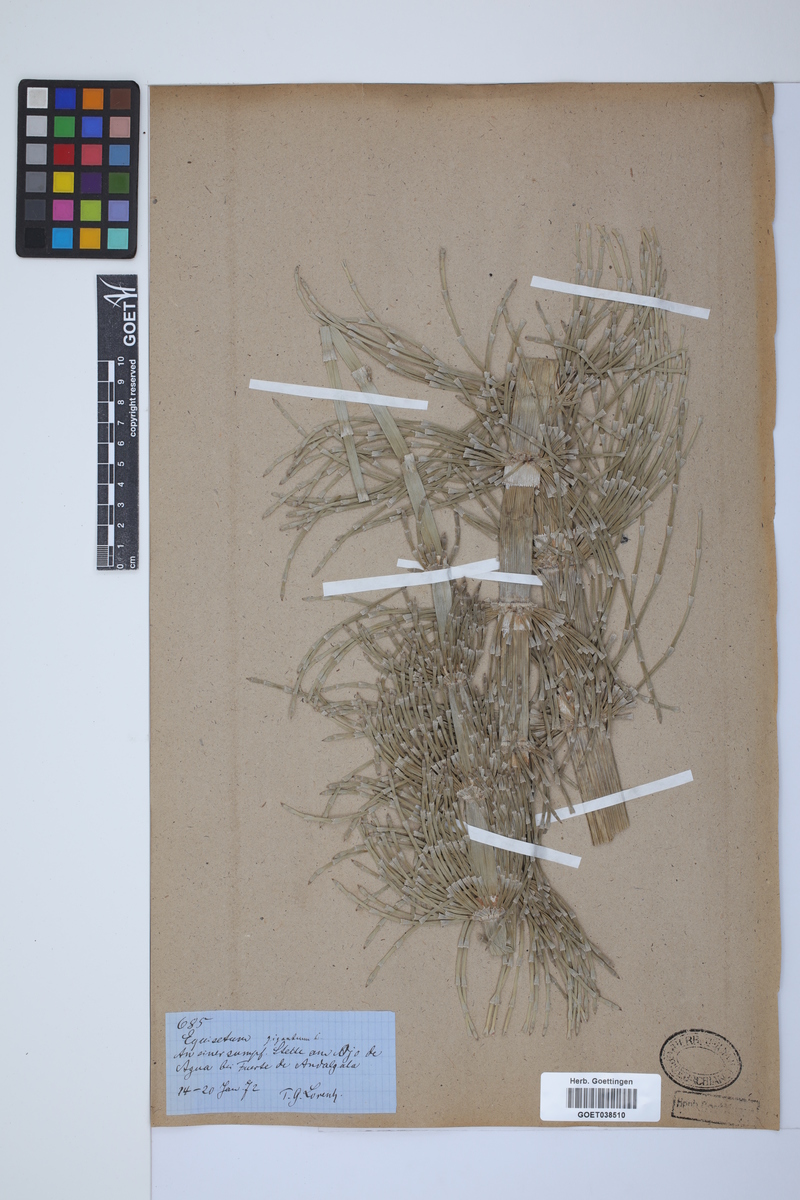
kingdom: Plantae
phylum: Tracheophyta
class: Polypodiopsida
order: Equisetales
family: Equisetaceae
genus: Equisetum
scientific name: Equisetum giganteum
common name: Giant horsetail
